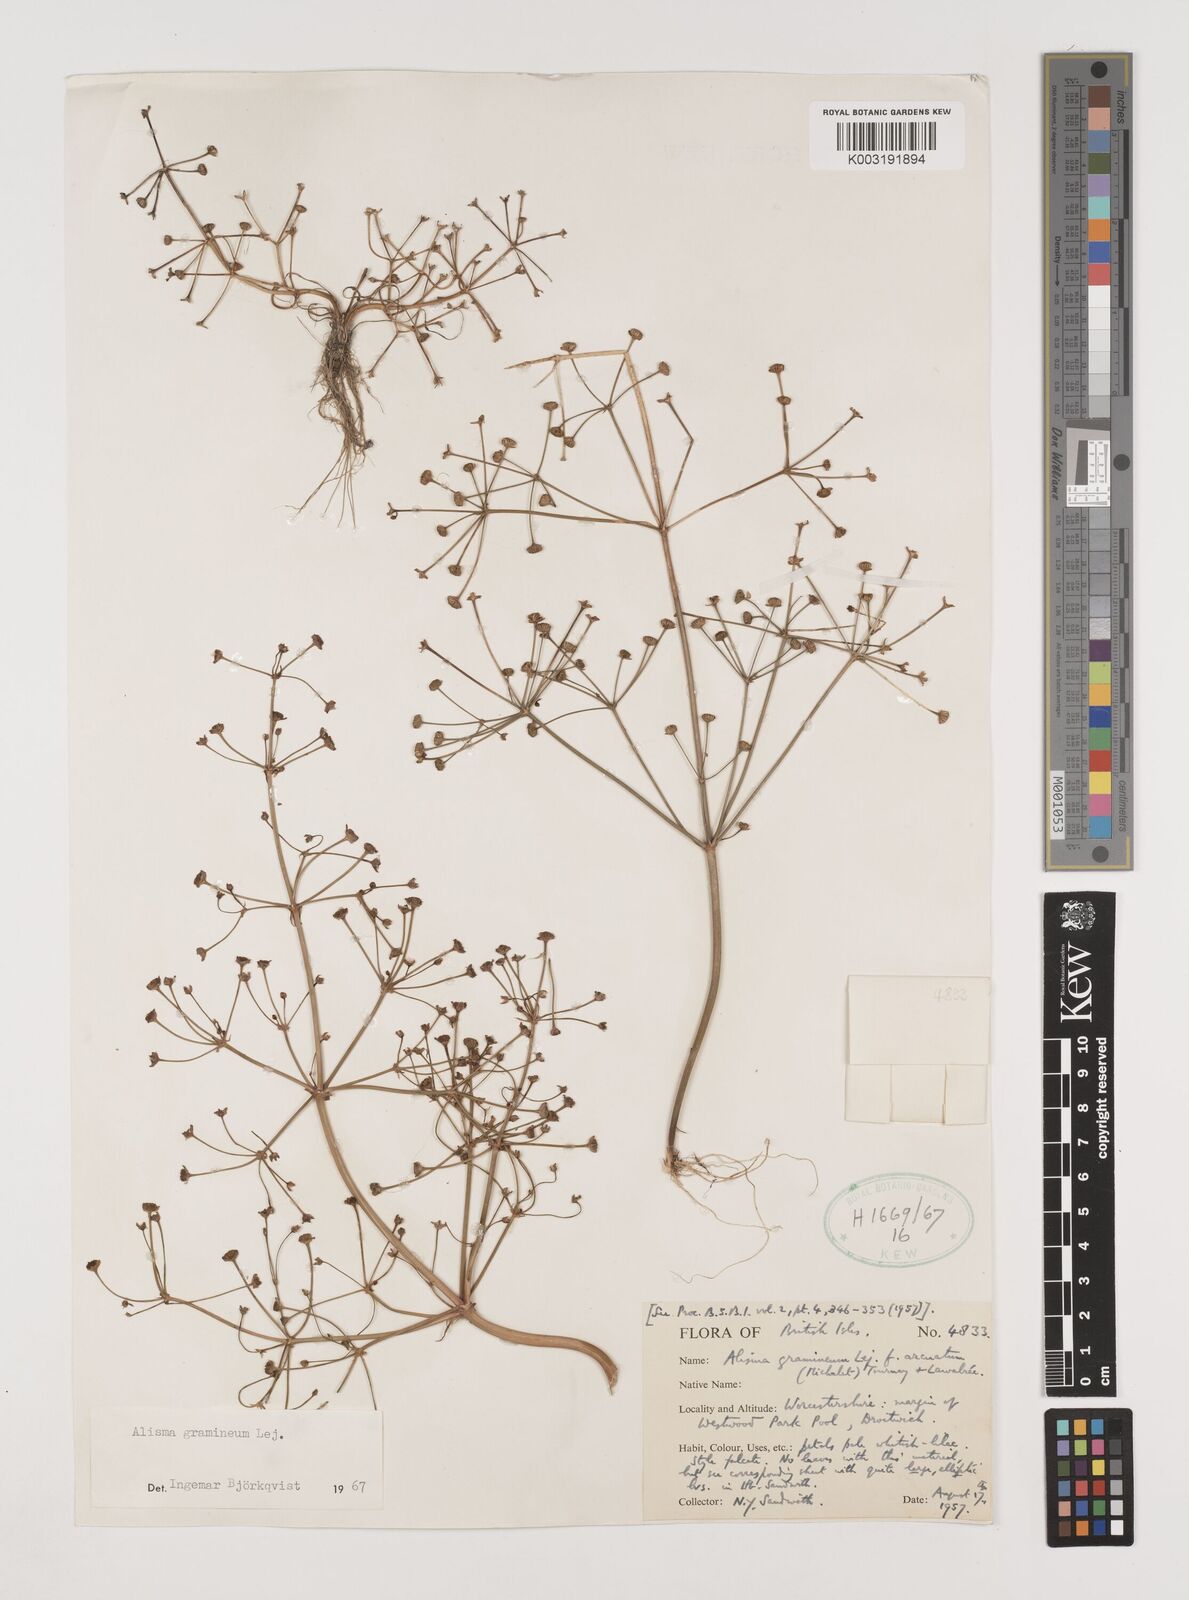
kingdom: Plantae
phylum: Tracheophyta
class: Liliopsida
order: Alismatales
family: Alismataceae
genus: Alisma
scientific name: Alisma gramineum
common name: Ribbon-leaved water-plantain
